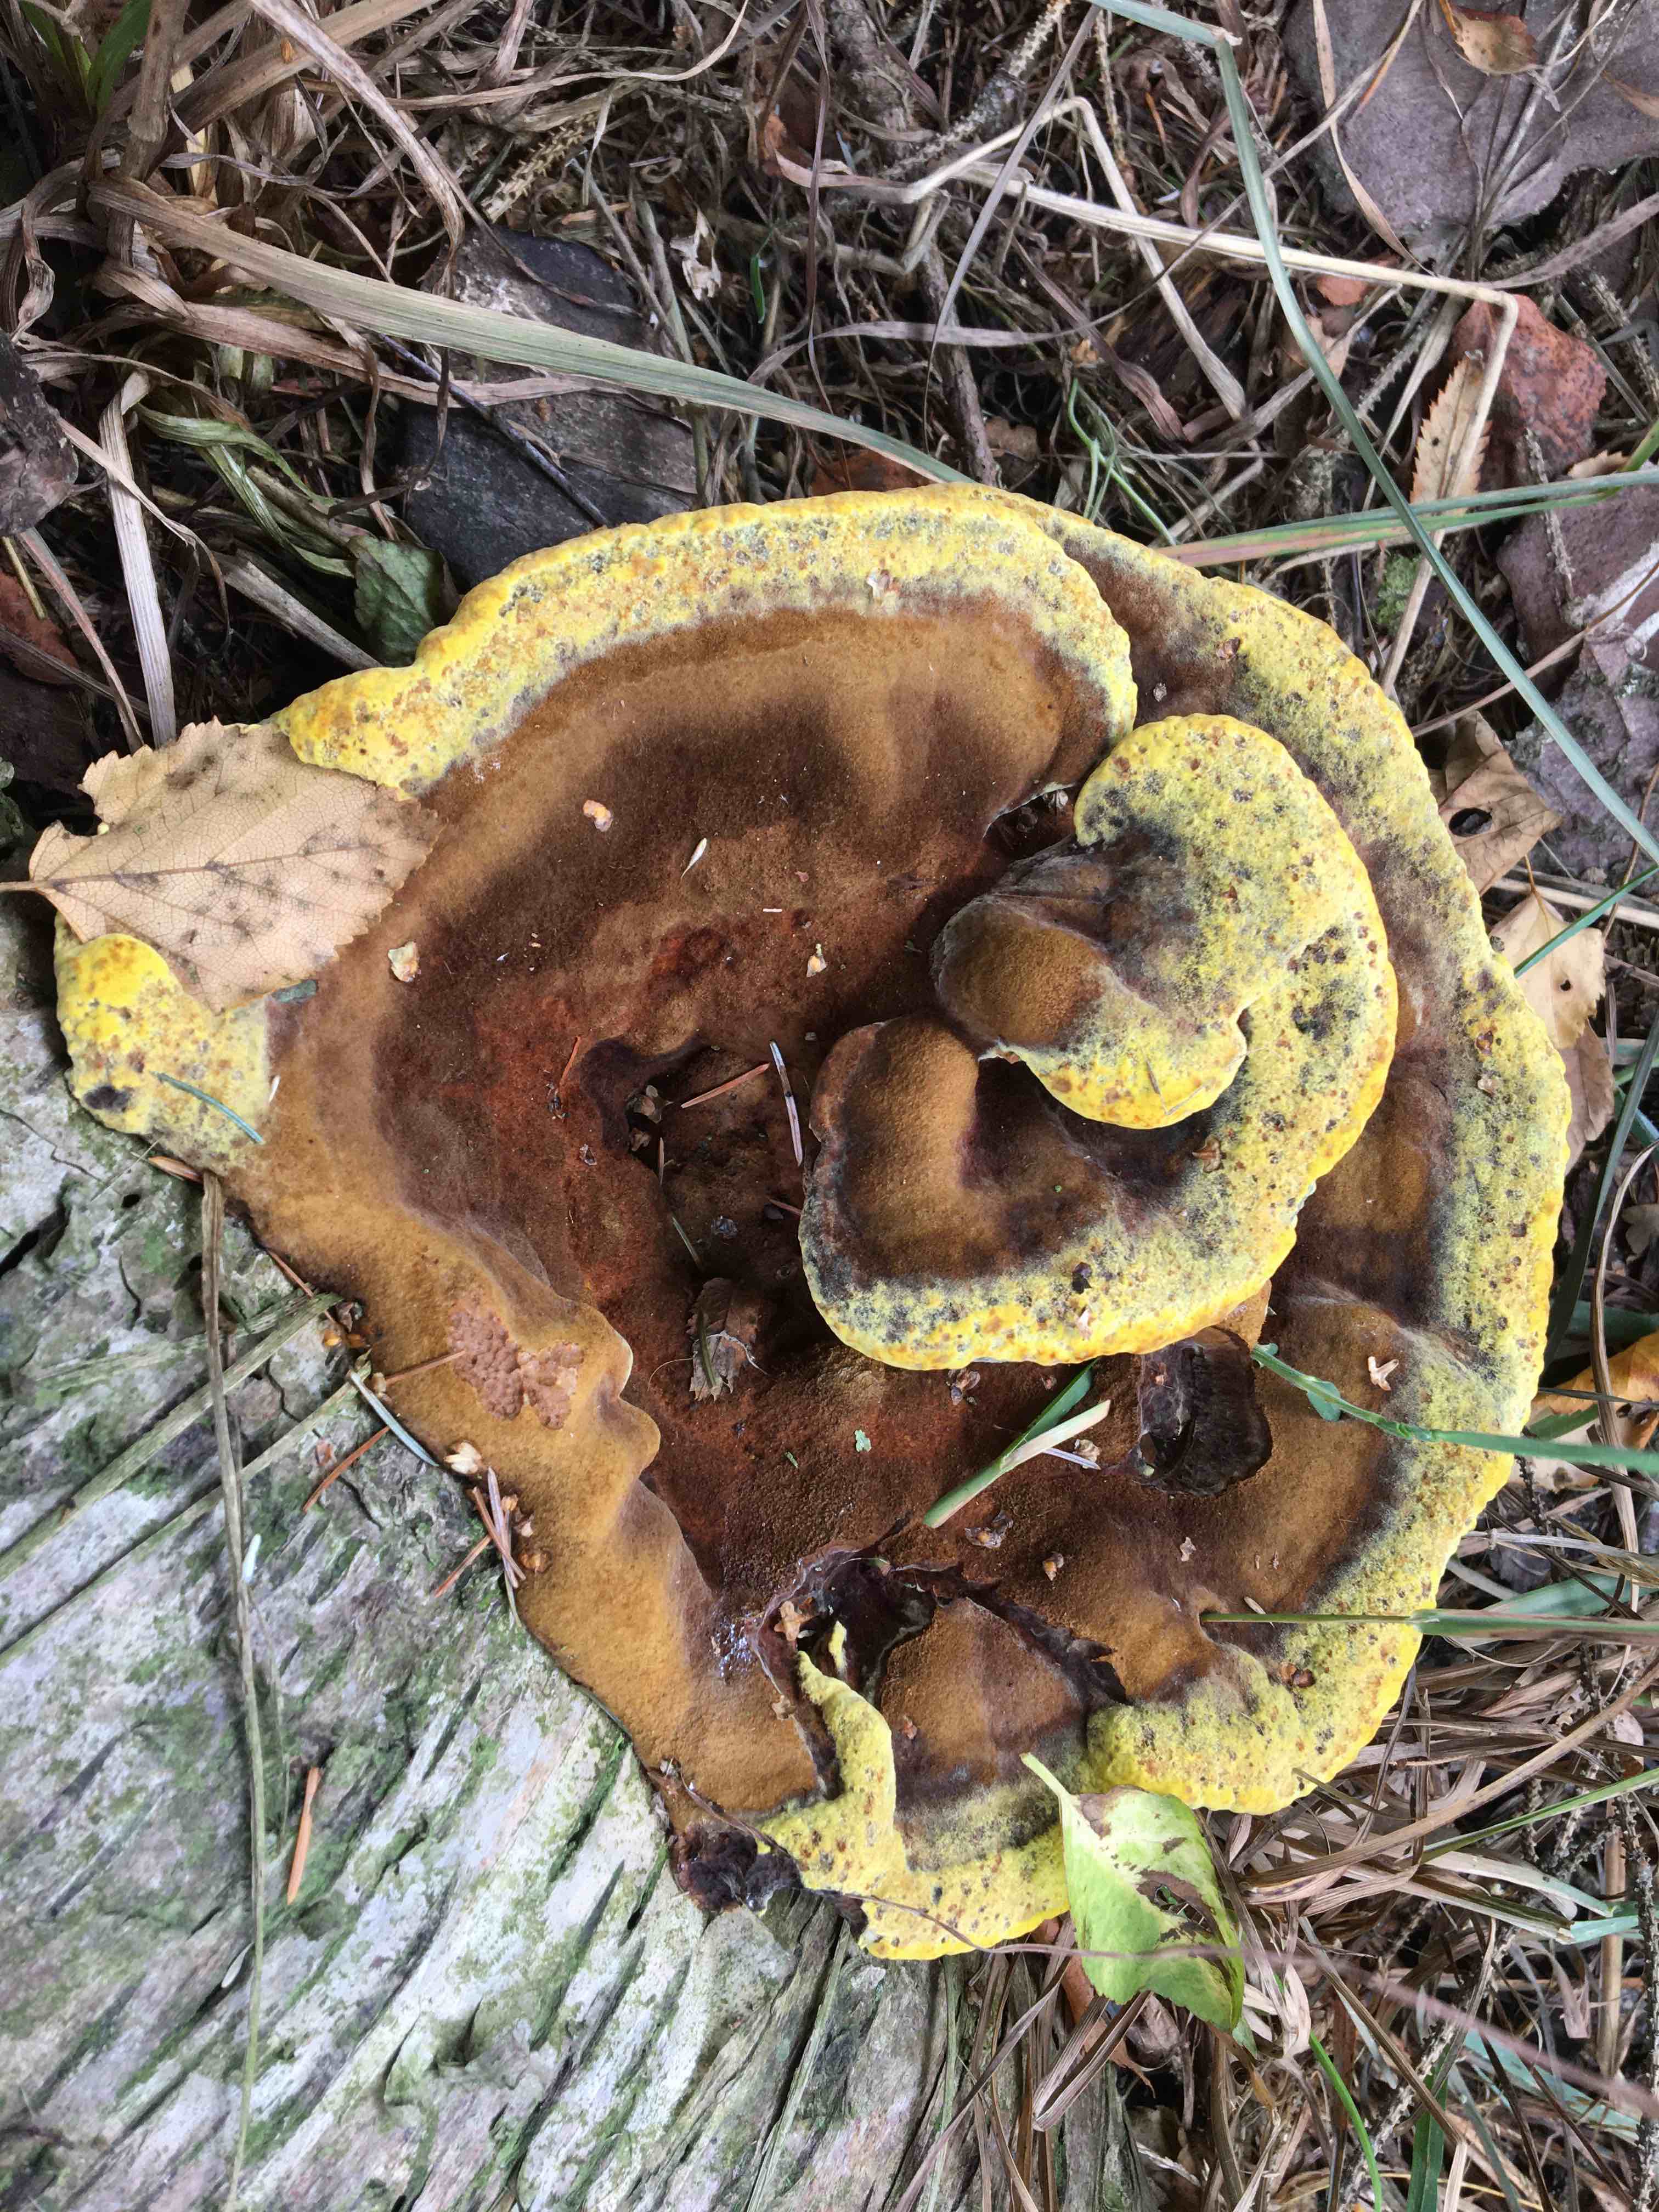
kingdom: Fungi
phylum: Basidiomycota
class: Agaricomycetes
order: Polyporales
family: Laetiporaceae
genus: Phaeolus
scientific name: Phaeolus schweinitzii
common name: brunporesvamp
